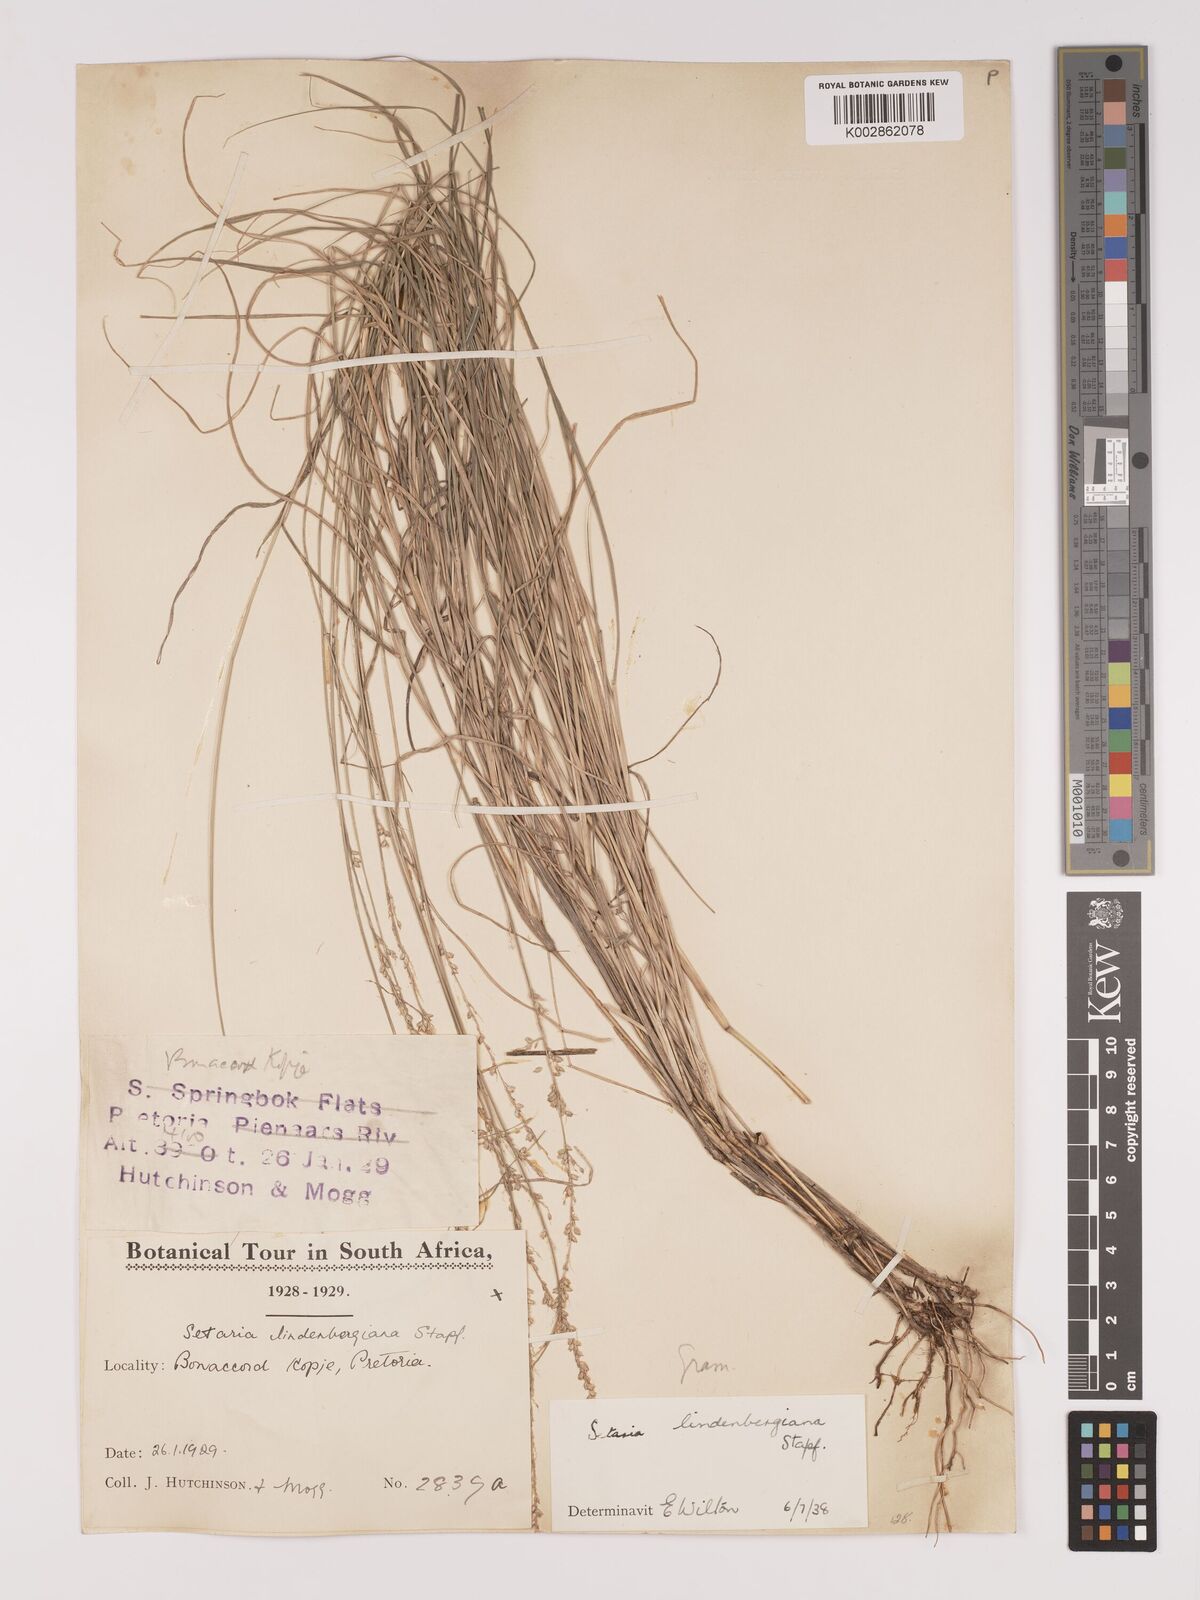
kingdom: Plantae
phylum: Tracheophyta
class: Liliopsida
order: Poales
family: Poaceae
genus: Setaria
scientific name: Setaria lindenbergiana
